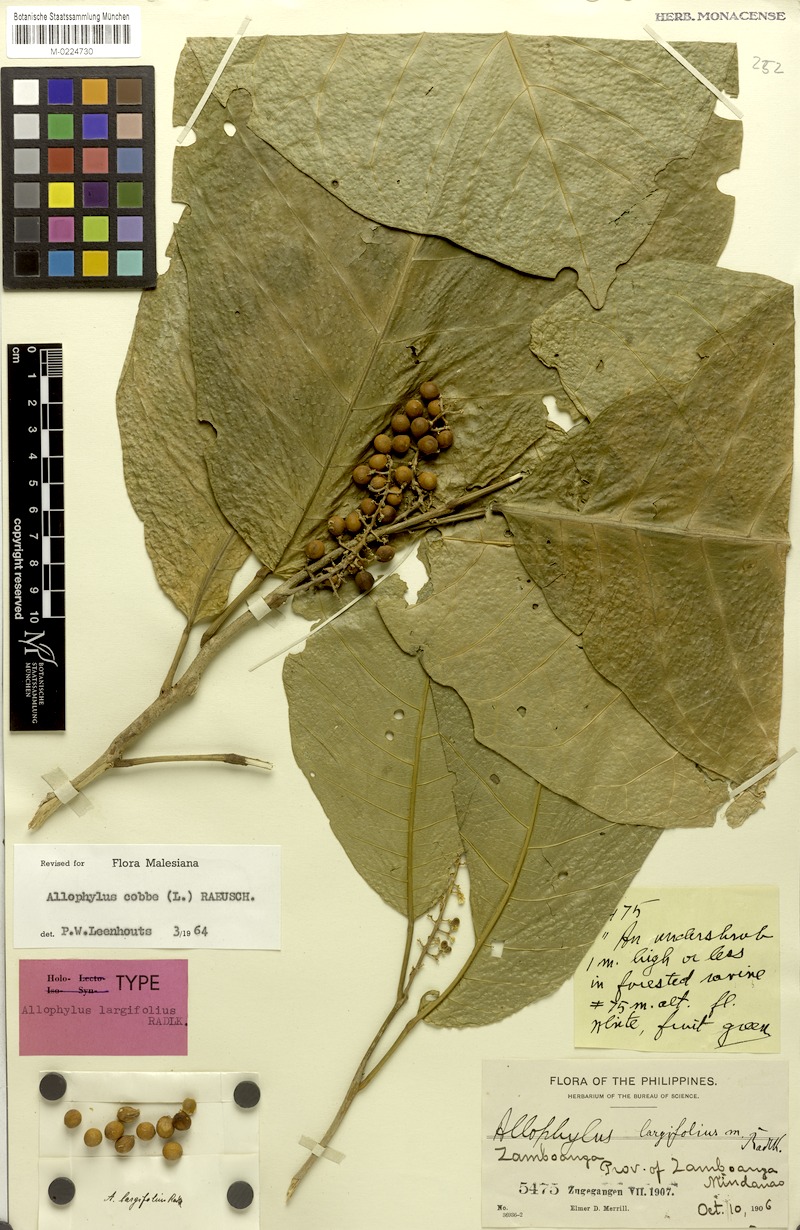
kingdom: Plantae
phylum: Tracheophyta
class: Magnoliopsida
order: Sapindales
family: Sapindaceae
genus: Allophylus
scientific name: Allophylus largifolius
